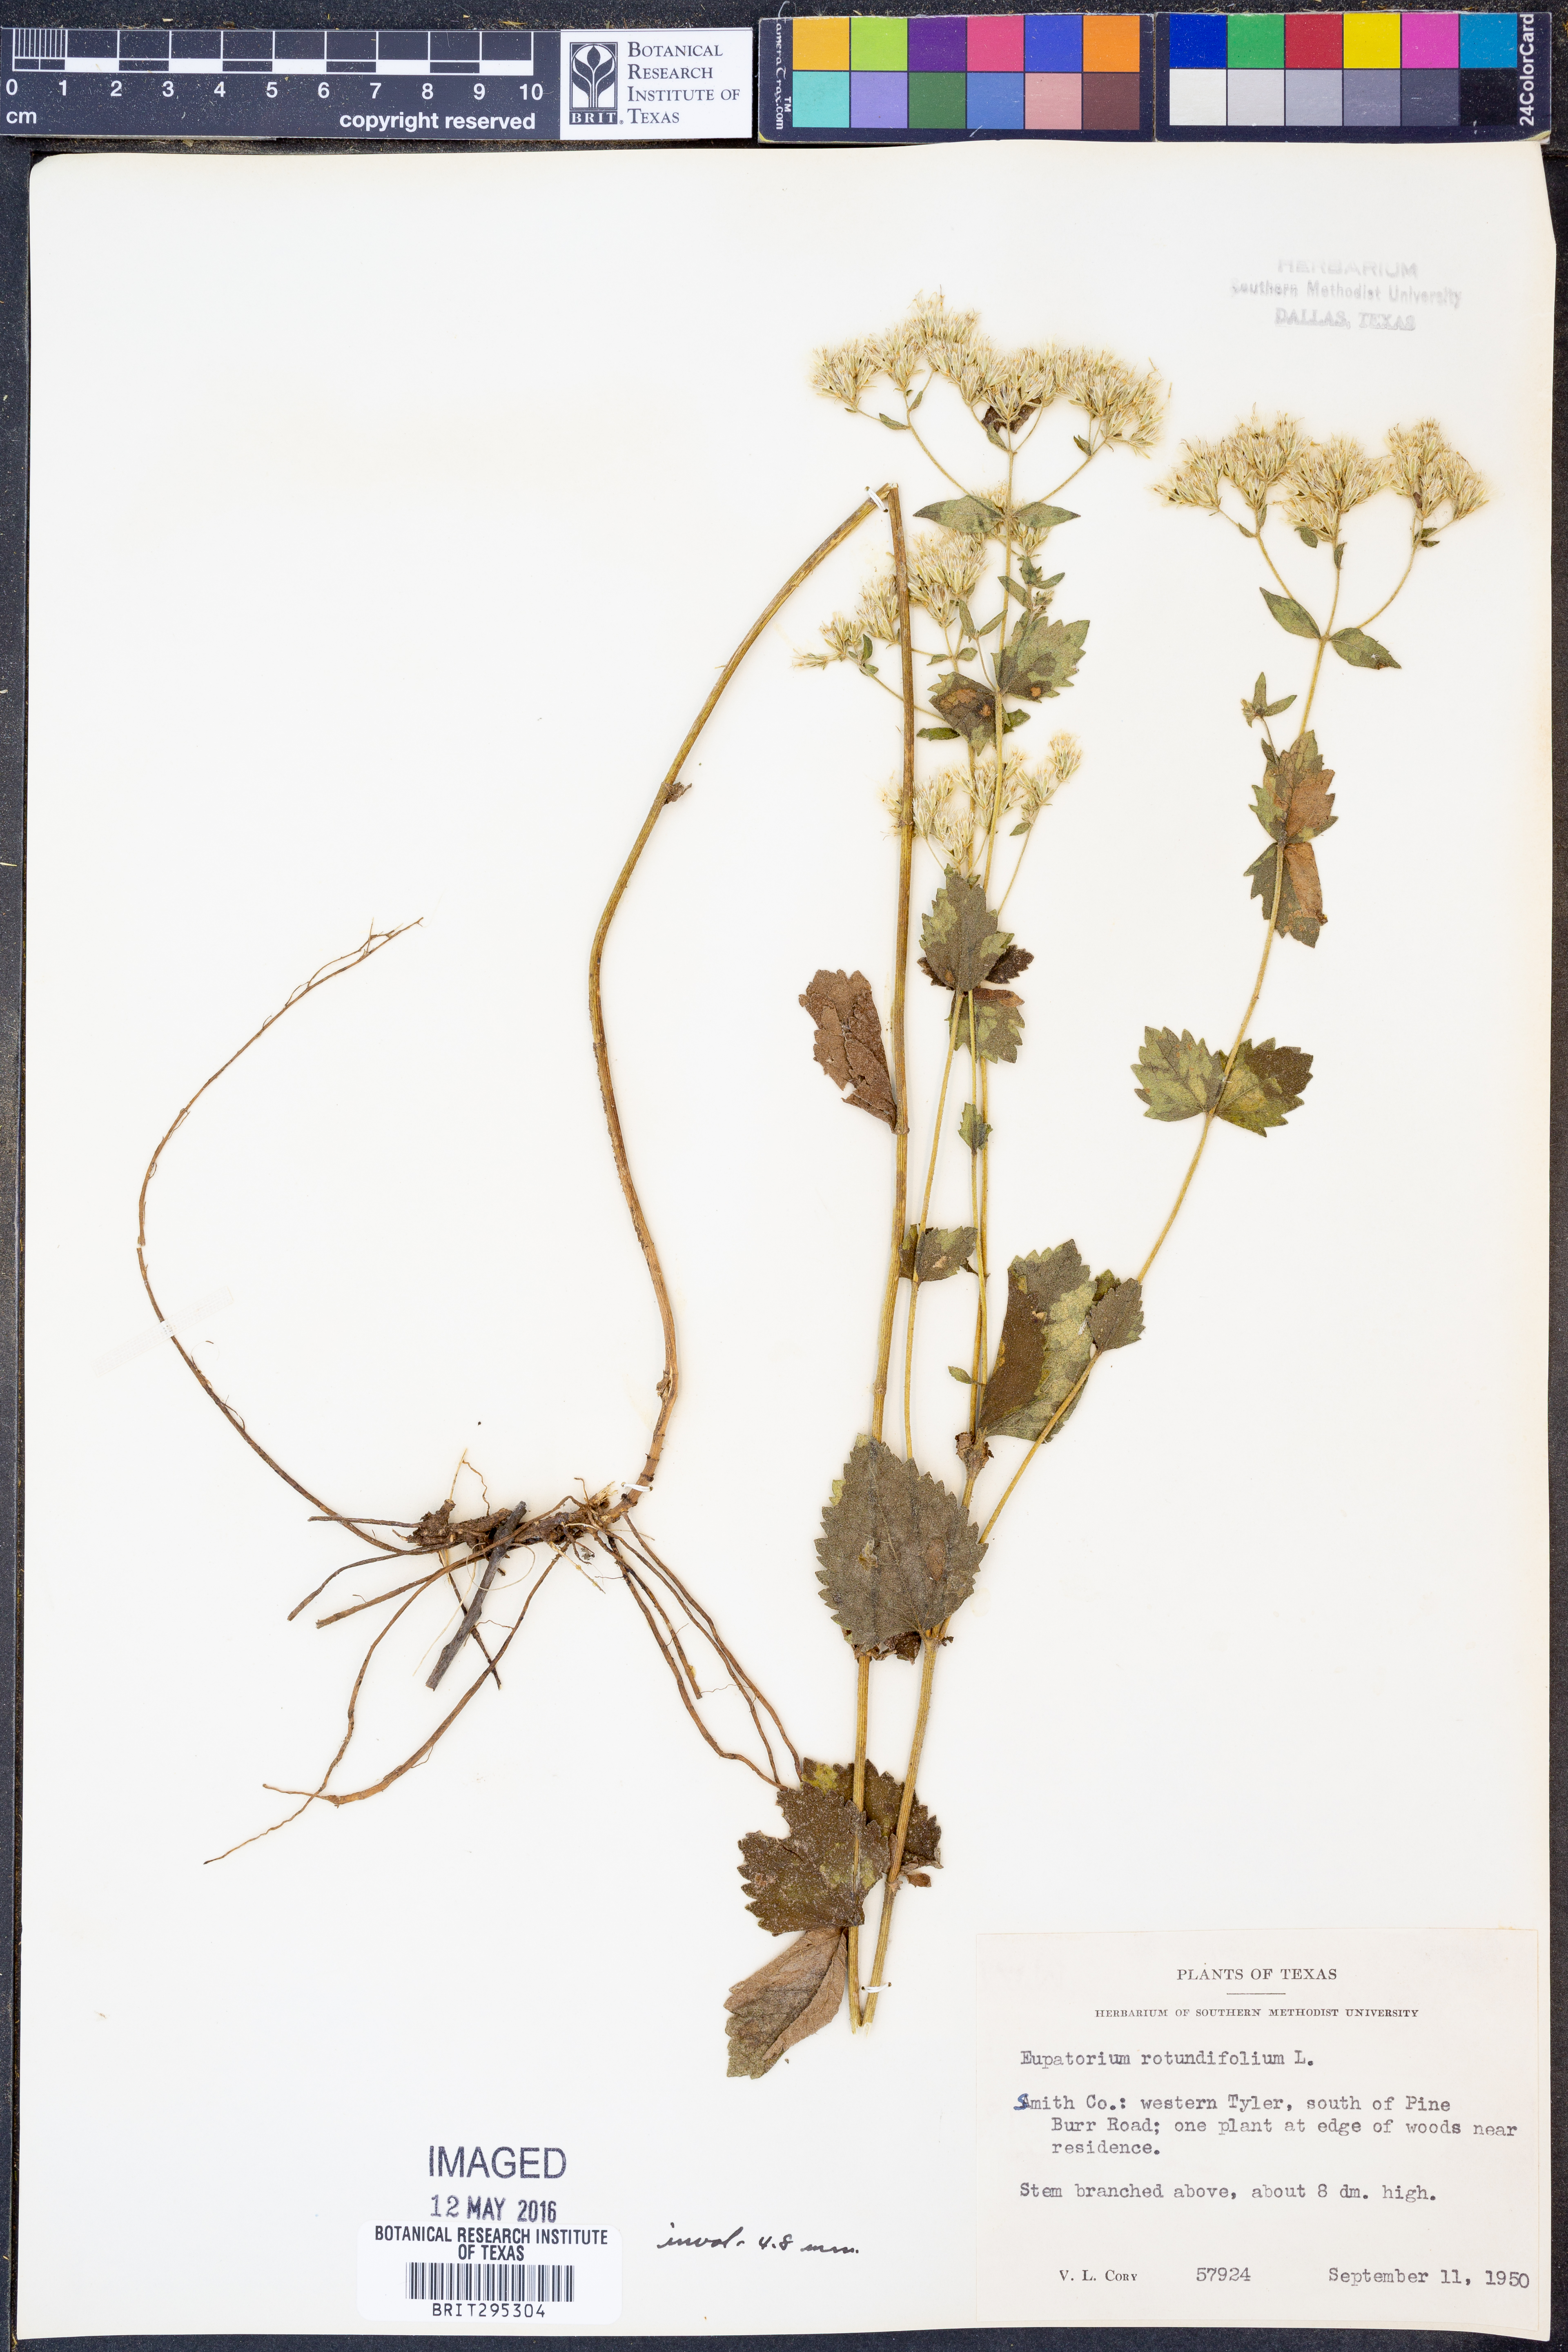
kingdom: Plantae
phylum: Tracheophyta
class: Magnoliopsida
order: Asterales
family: Asteraceae
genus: Eupatorium
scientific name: Eupatorium rotundifolium
